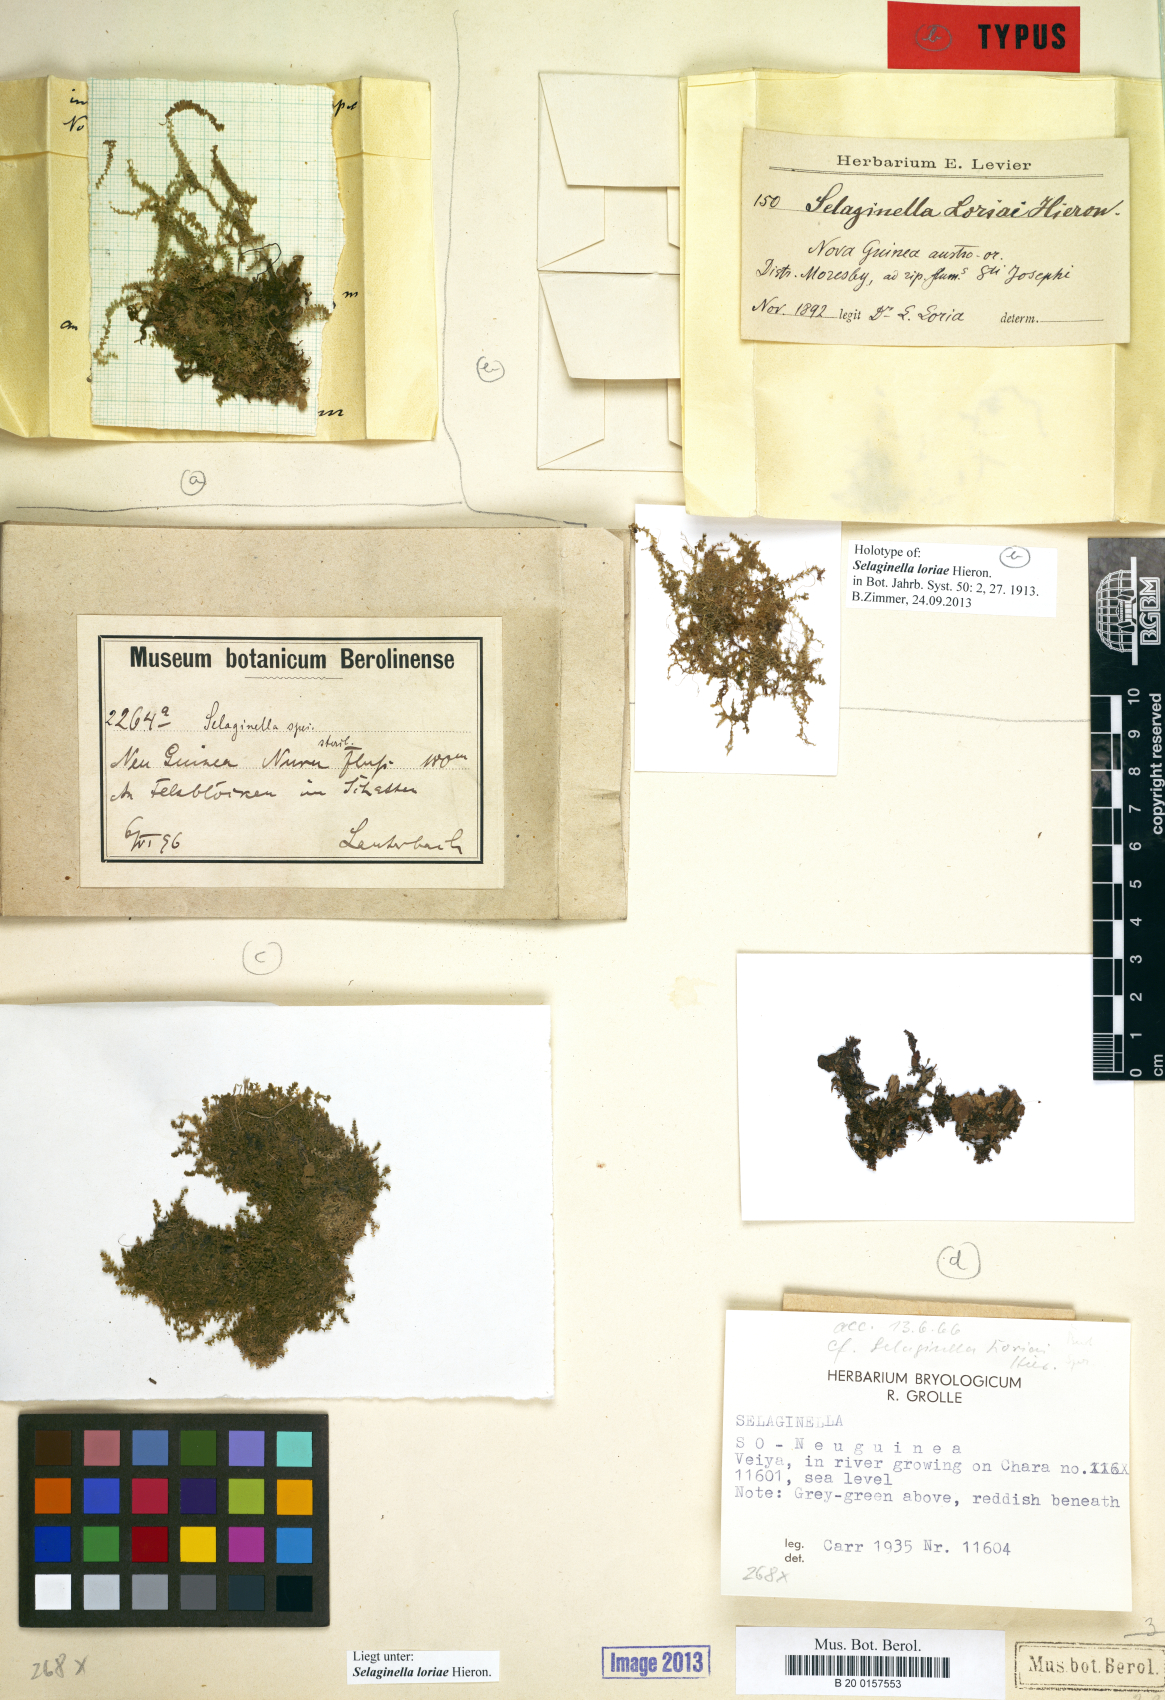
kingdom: Plantae
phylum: Tracheophyta
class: Lycopodiopsida
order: Selaginellales
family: Selaginellaceae
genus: Selaginella
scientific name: Selaginella loriai
